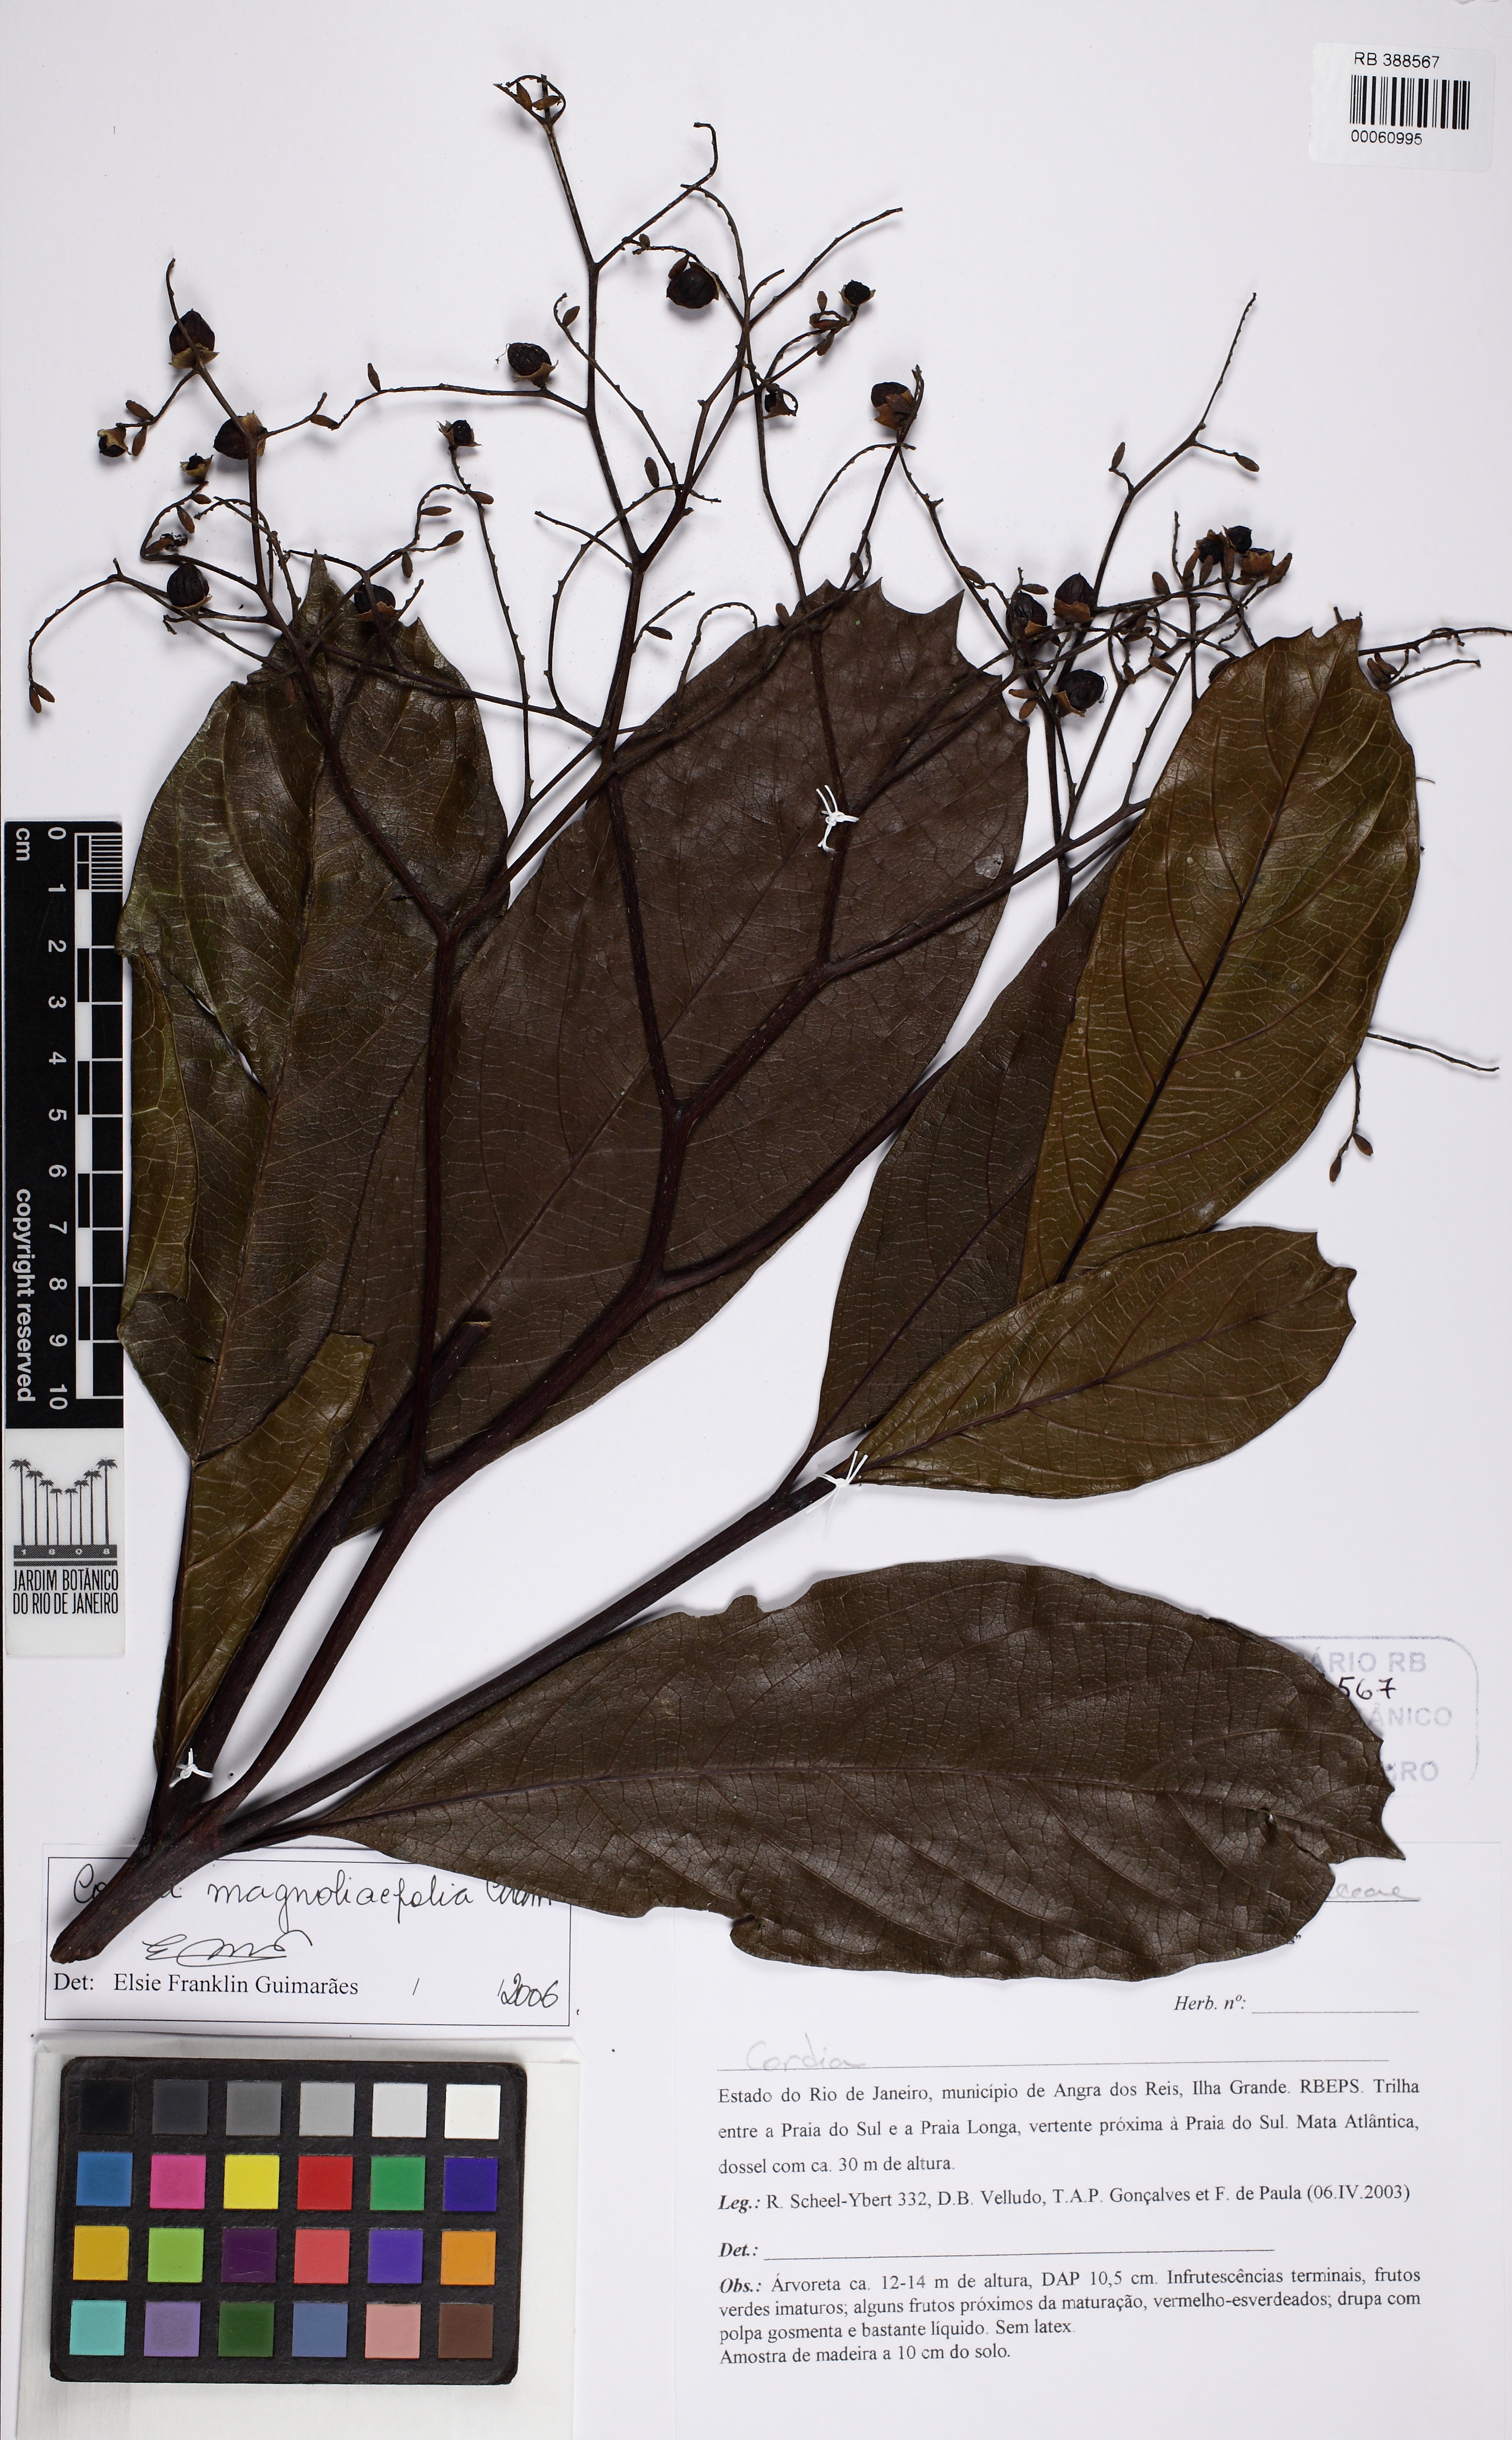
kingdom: Plantae
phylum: Tracheophyta
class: Magnoliopsida
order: Boraginales
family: Cordiaceae
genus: Cordia
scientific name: Cordia magnoliifolia
